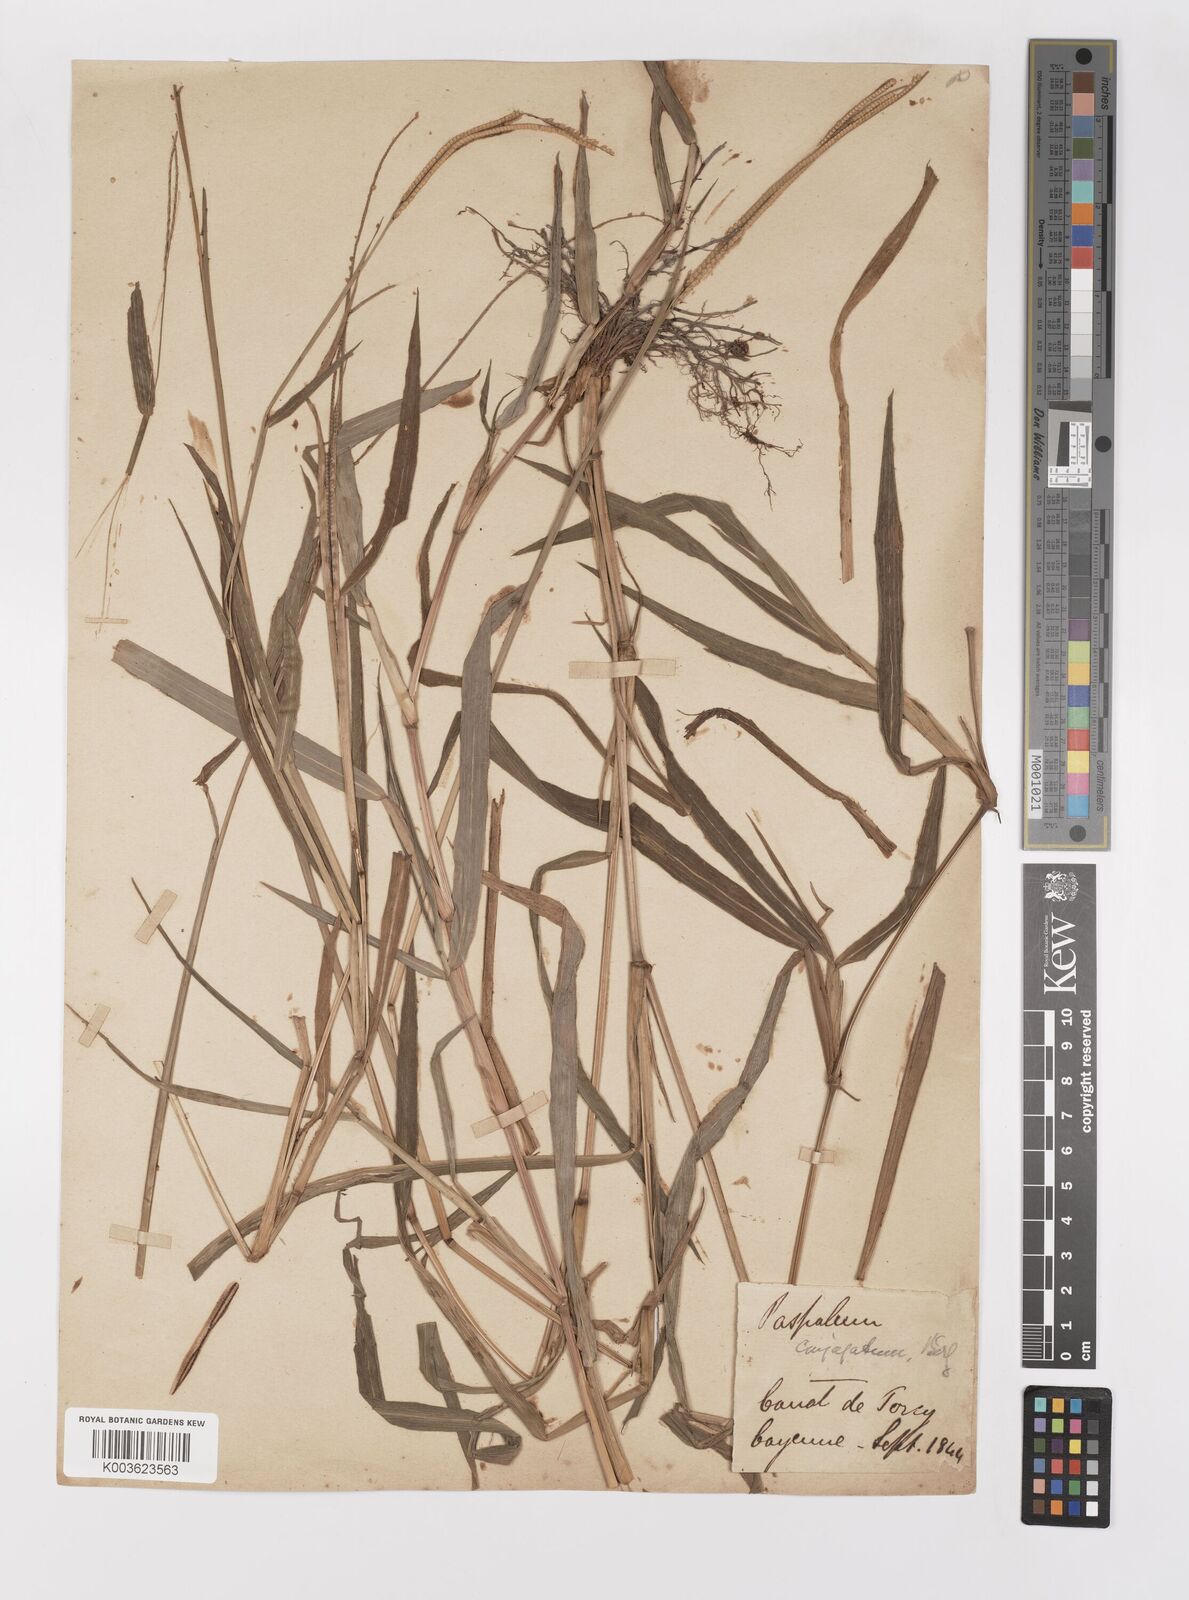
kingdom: Plantae
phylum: Tracheophyta
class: Liliopsida
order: Poales
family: Poaceae
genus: Paspalum
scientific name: Paspalum conjugatum
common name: Hilograss
